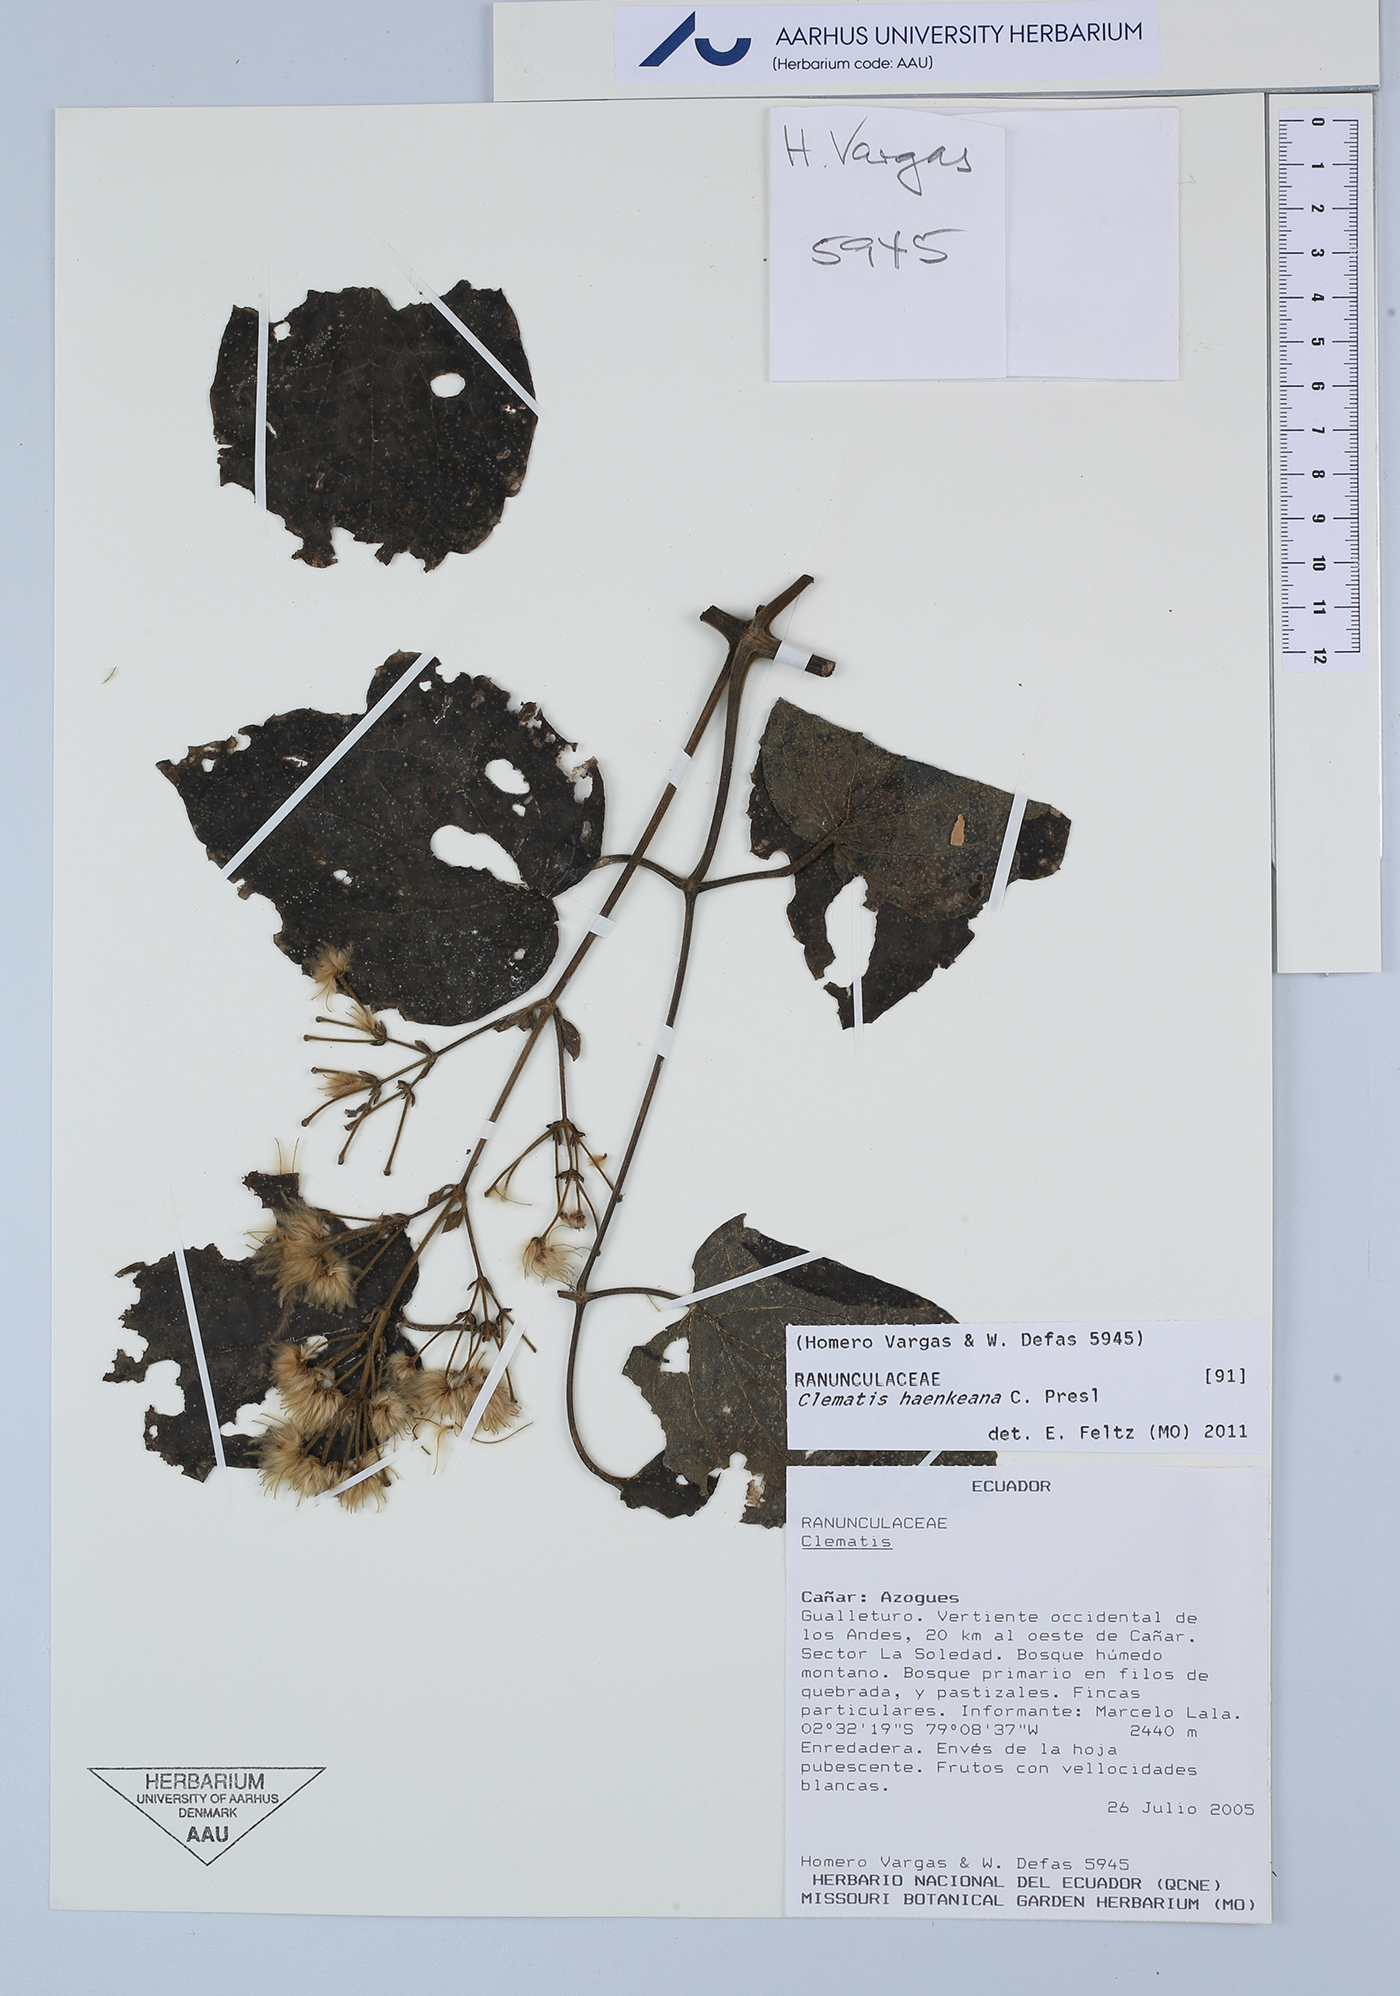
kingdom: Plantae
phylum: Tracheophyta
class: Magnoliopsida
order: Ranunculales
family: Ranunculaceae
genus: Clematis
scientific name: Clematis haenkeana
